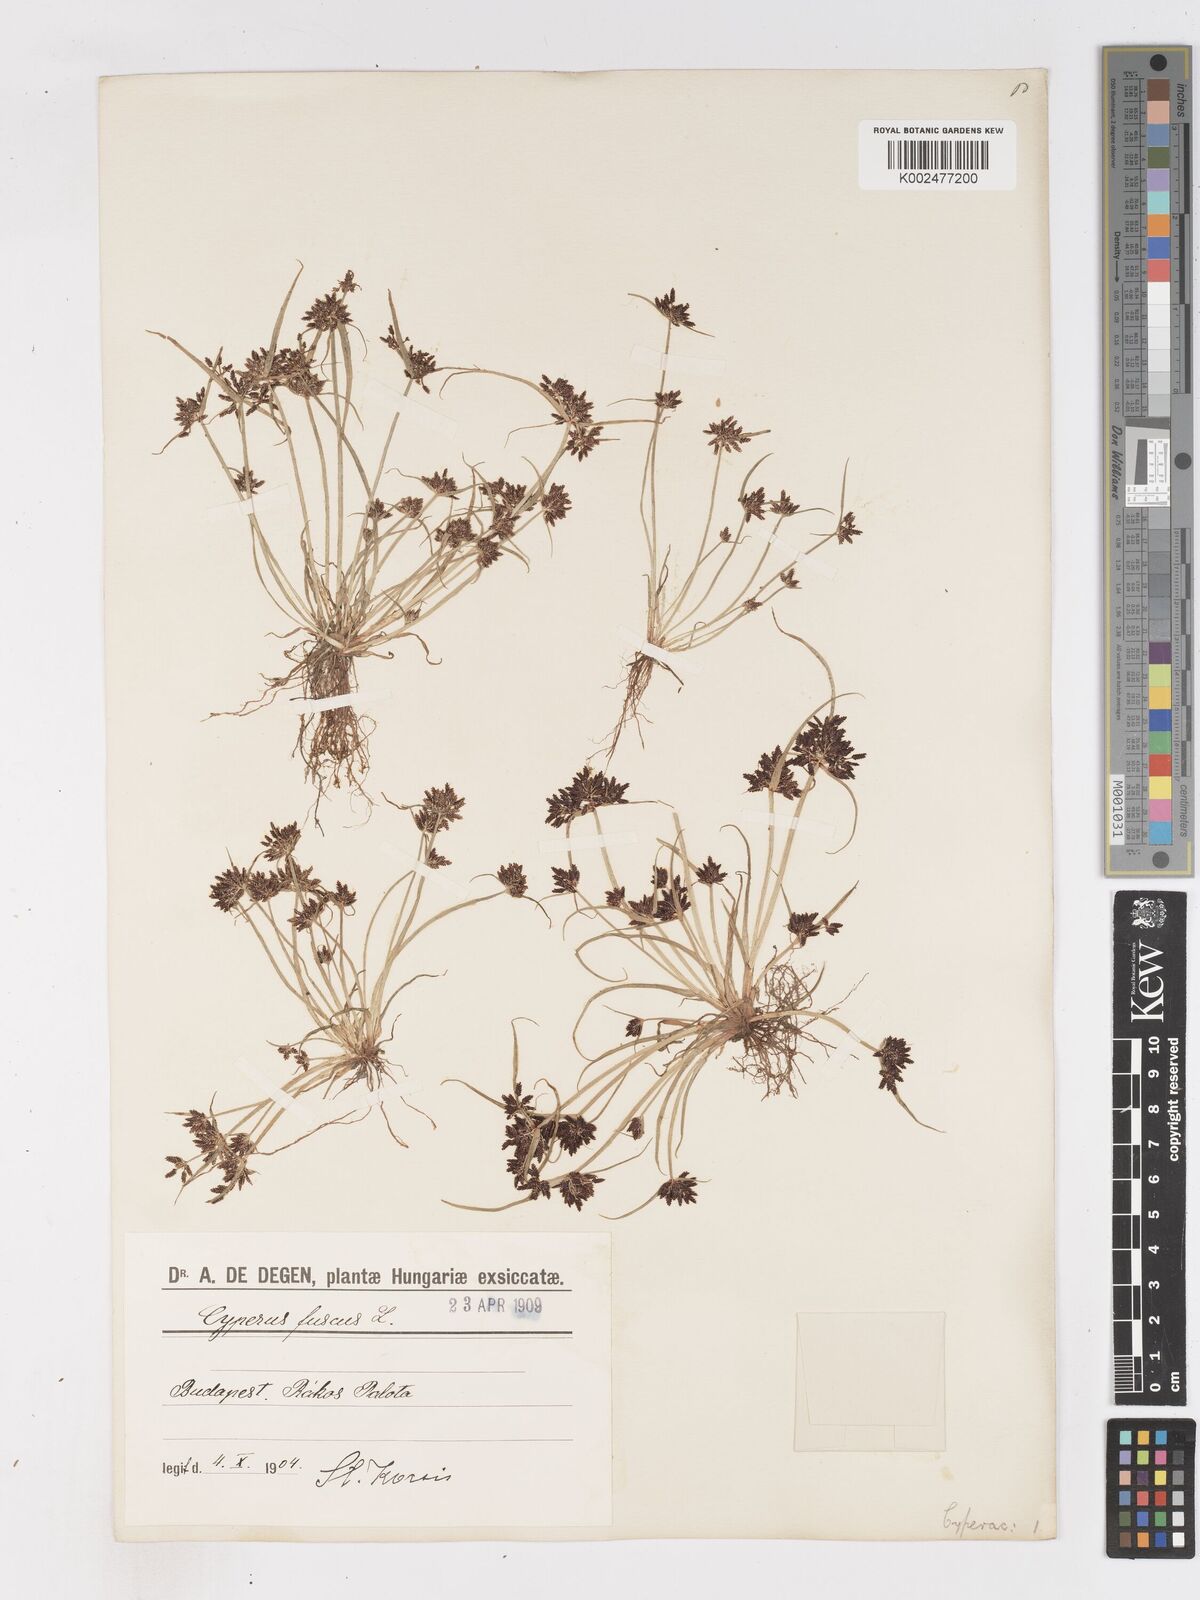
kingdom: Plantae
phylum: Tracheophyta
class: Liliopsida
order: Poales
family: Cyperaceae
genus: Cyperus
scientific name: Cyperus fuscus
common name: Brown galingale
